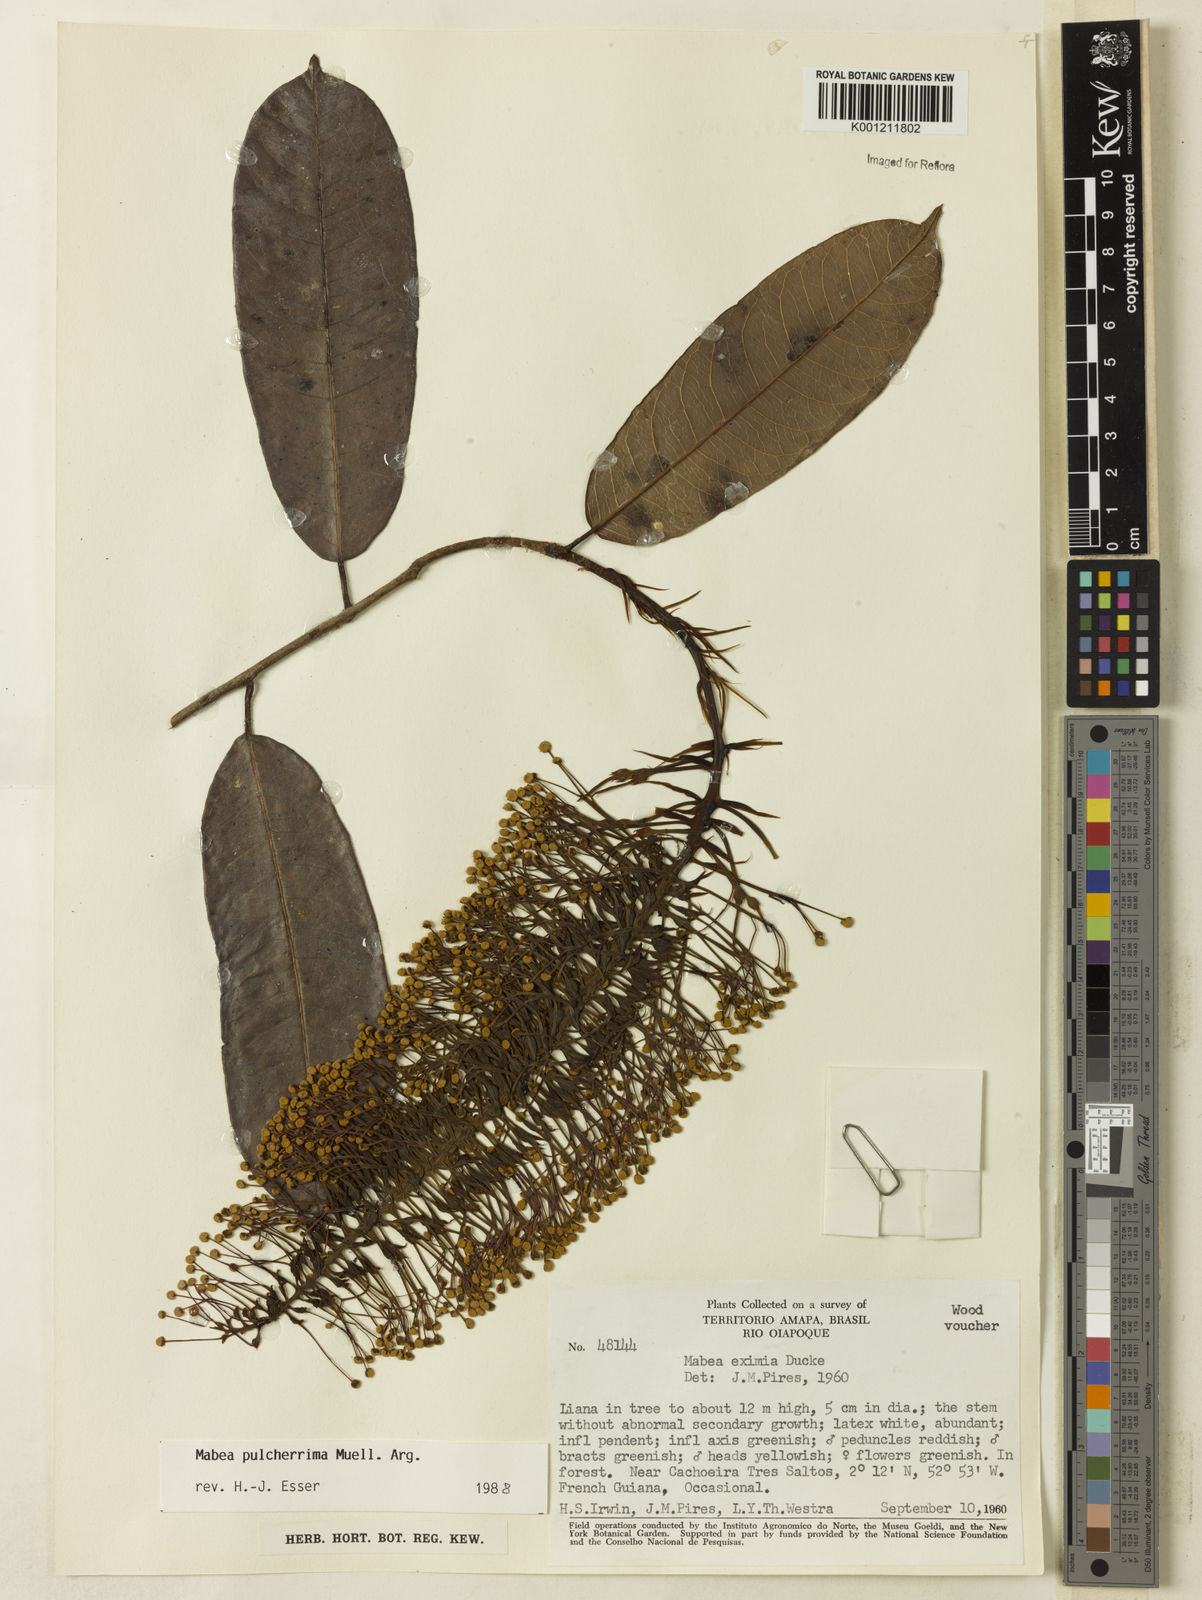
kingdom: Plantae
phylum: Tracheophyta
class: Magnoliopsida
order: Malpighiales
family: Euphorbiaceae
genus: Mabea
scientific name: Mabea
